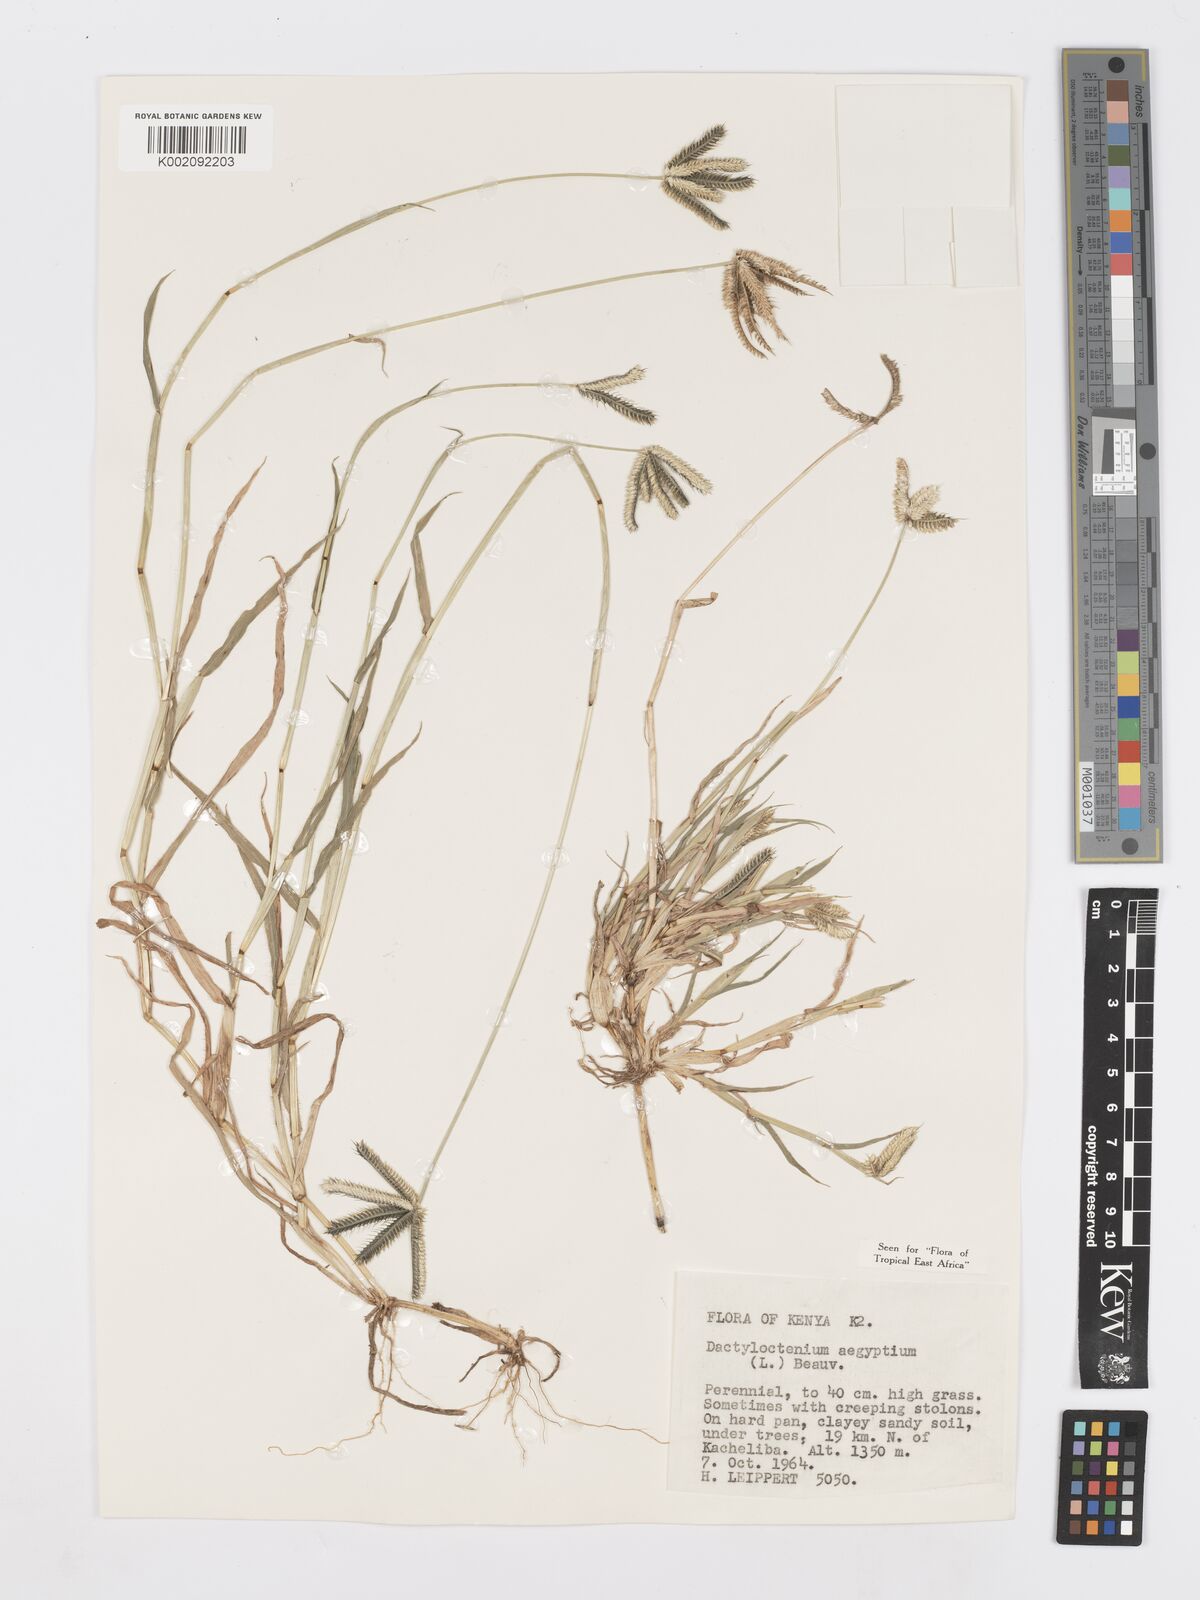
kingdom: Plantae
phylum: Tracheophyta
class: Liliopsida
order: Poales
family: Poaceae
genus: Dactyloctenium
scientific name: Dactyloctenium aegyptium
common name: Egyptian grass
